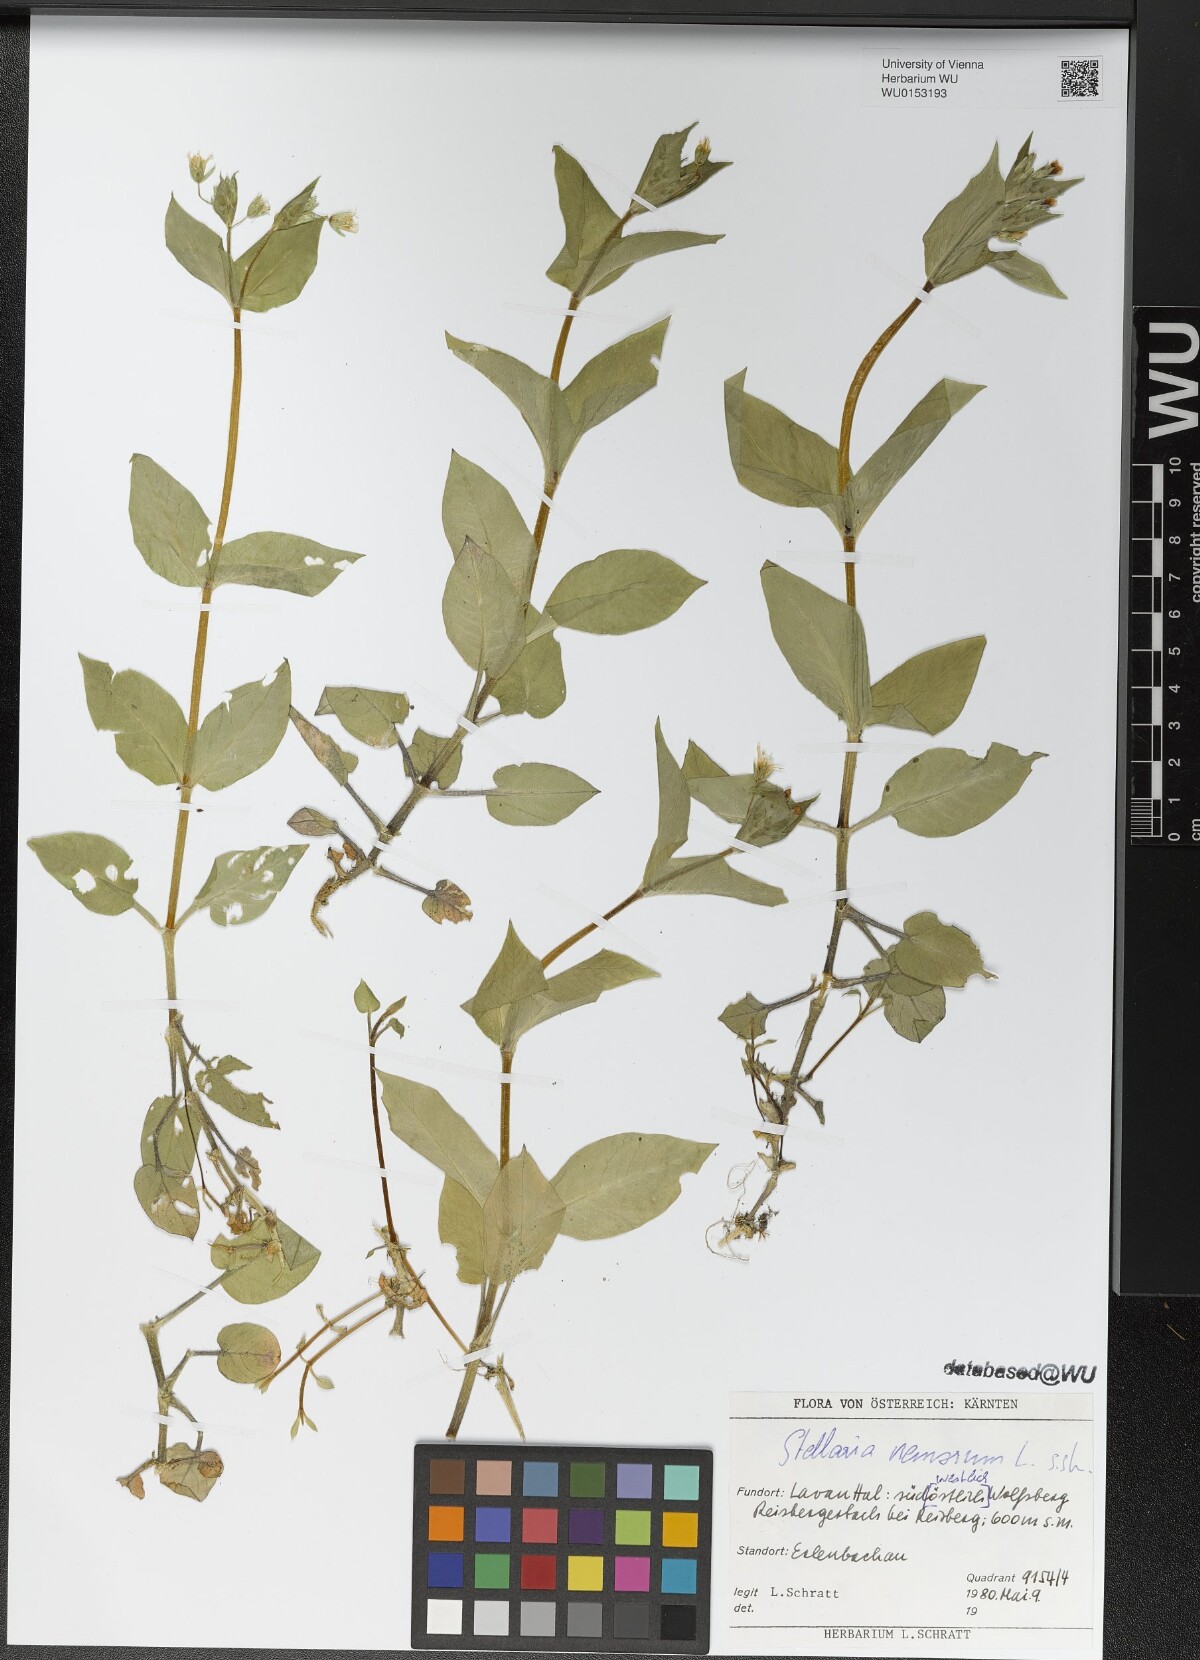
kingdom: Plantae
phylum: Tracheophyta
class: Magnoliopsida
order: Caryophyllales
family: Caryophyllaceae
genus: Stellaria
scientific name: Stellaria nemorum
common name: Wood stitchwort
